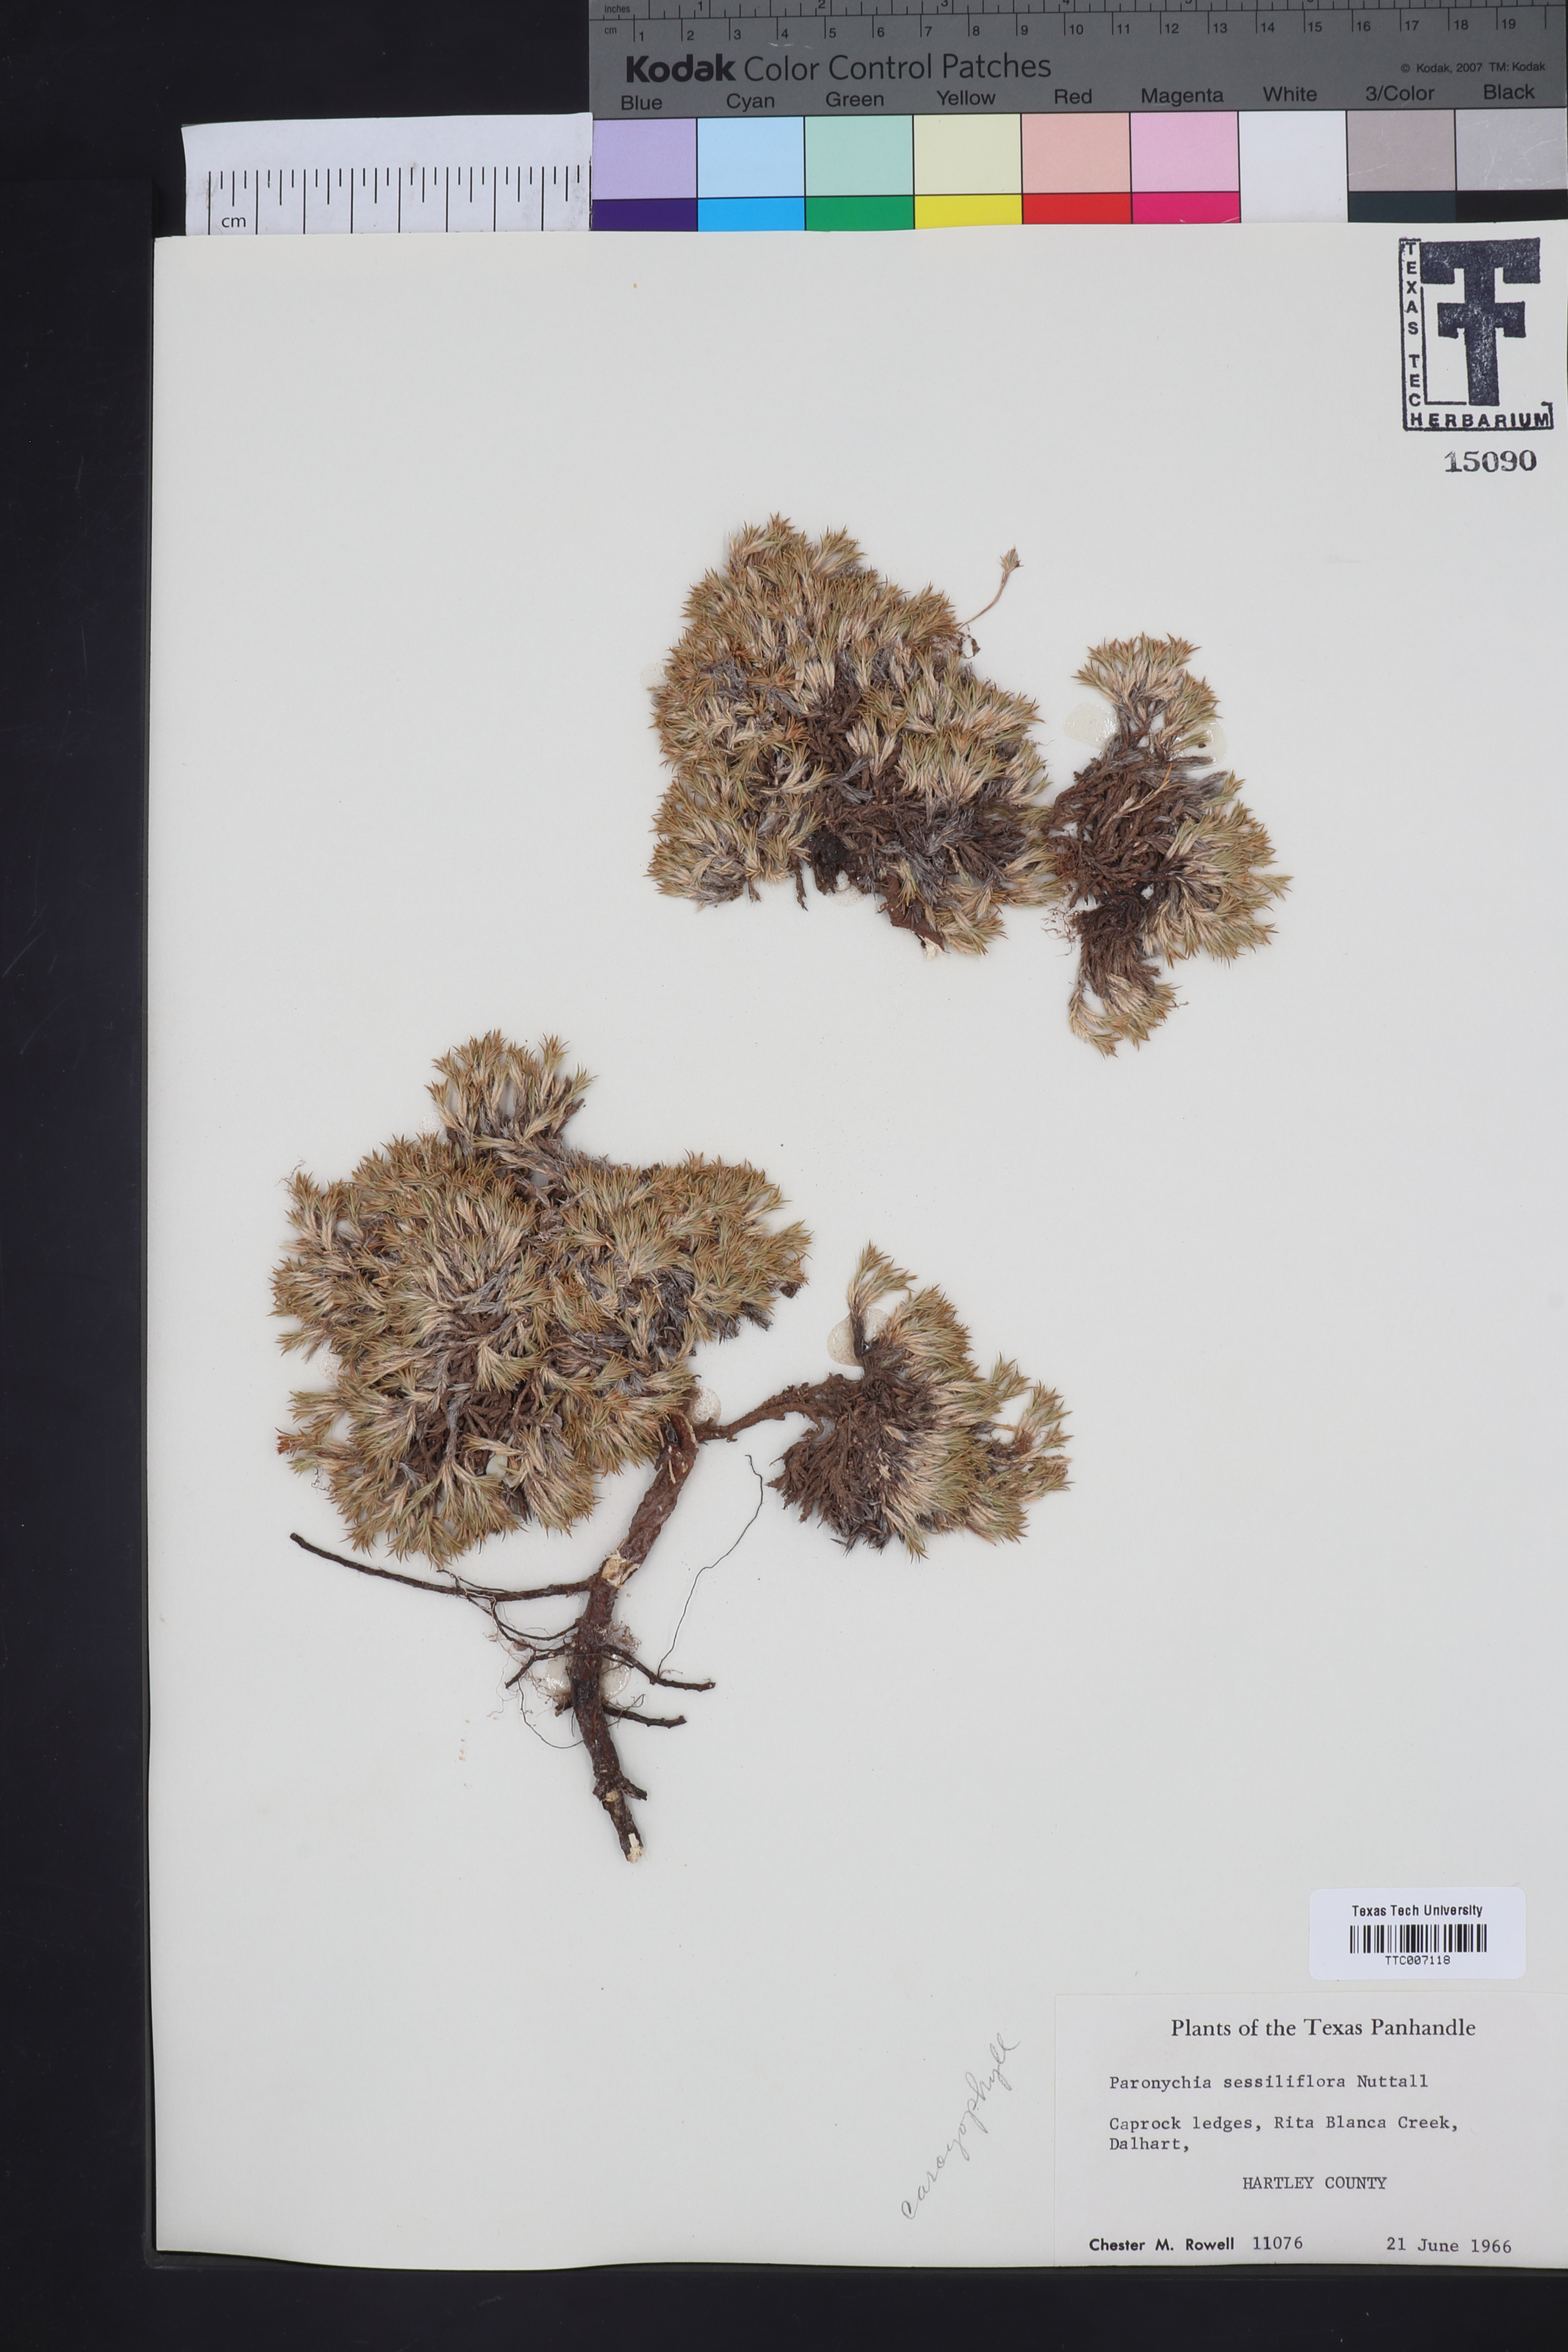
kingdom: Plantae
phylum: Tracheophyta
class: Magnoliopsida
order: Caryophyllales
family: Caryophyllaceae
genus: Paronychia
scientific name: Paronychia sessiliflora
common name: Creeping nailwort
